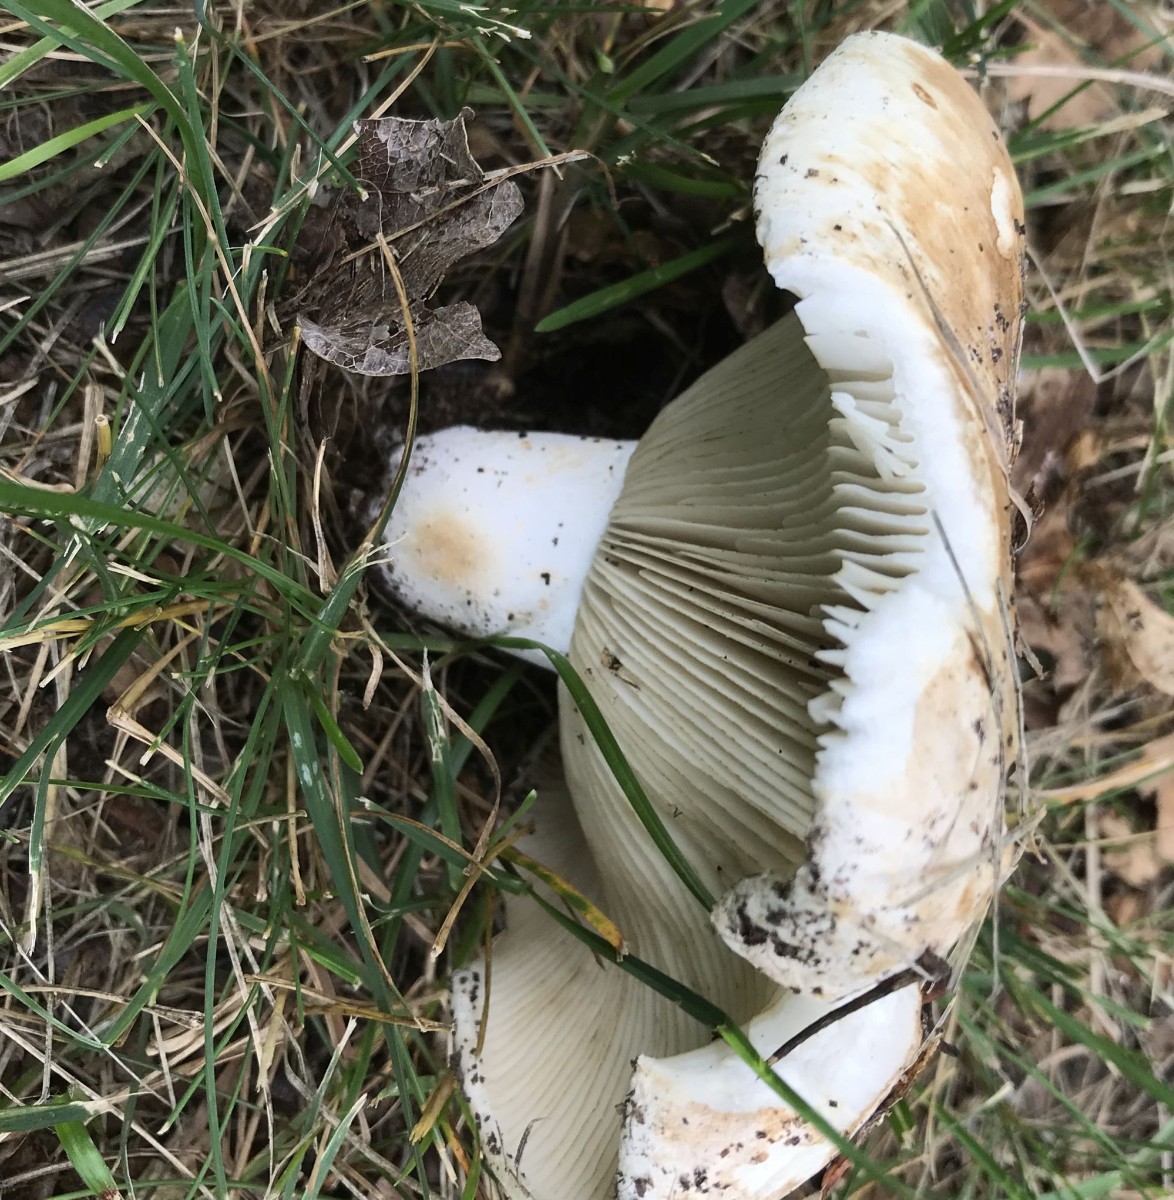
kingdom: Fungi
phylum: Basidiomycota
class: Agaricomycetes
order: Russulales
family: Russulaceae
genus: Russula
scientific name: Russula chloroides
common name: grønhalset tragt-skørhat
